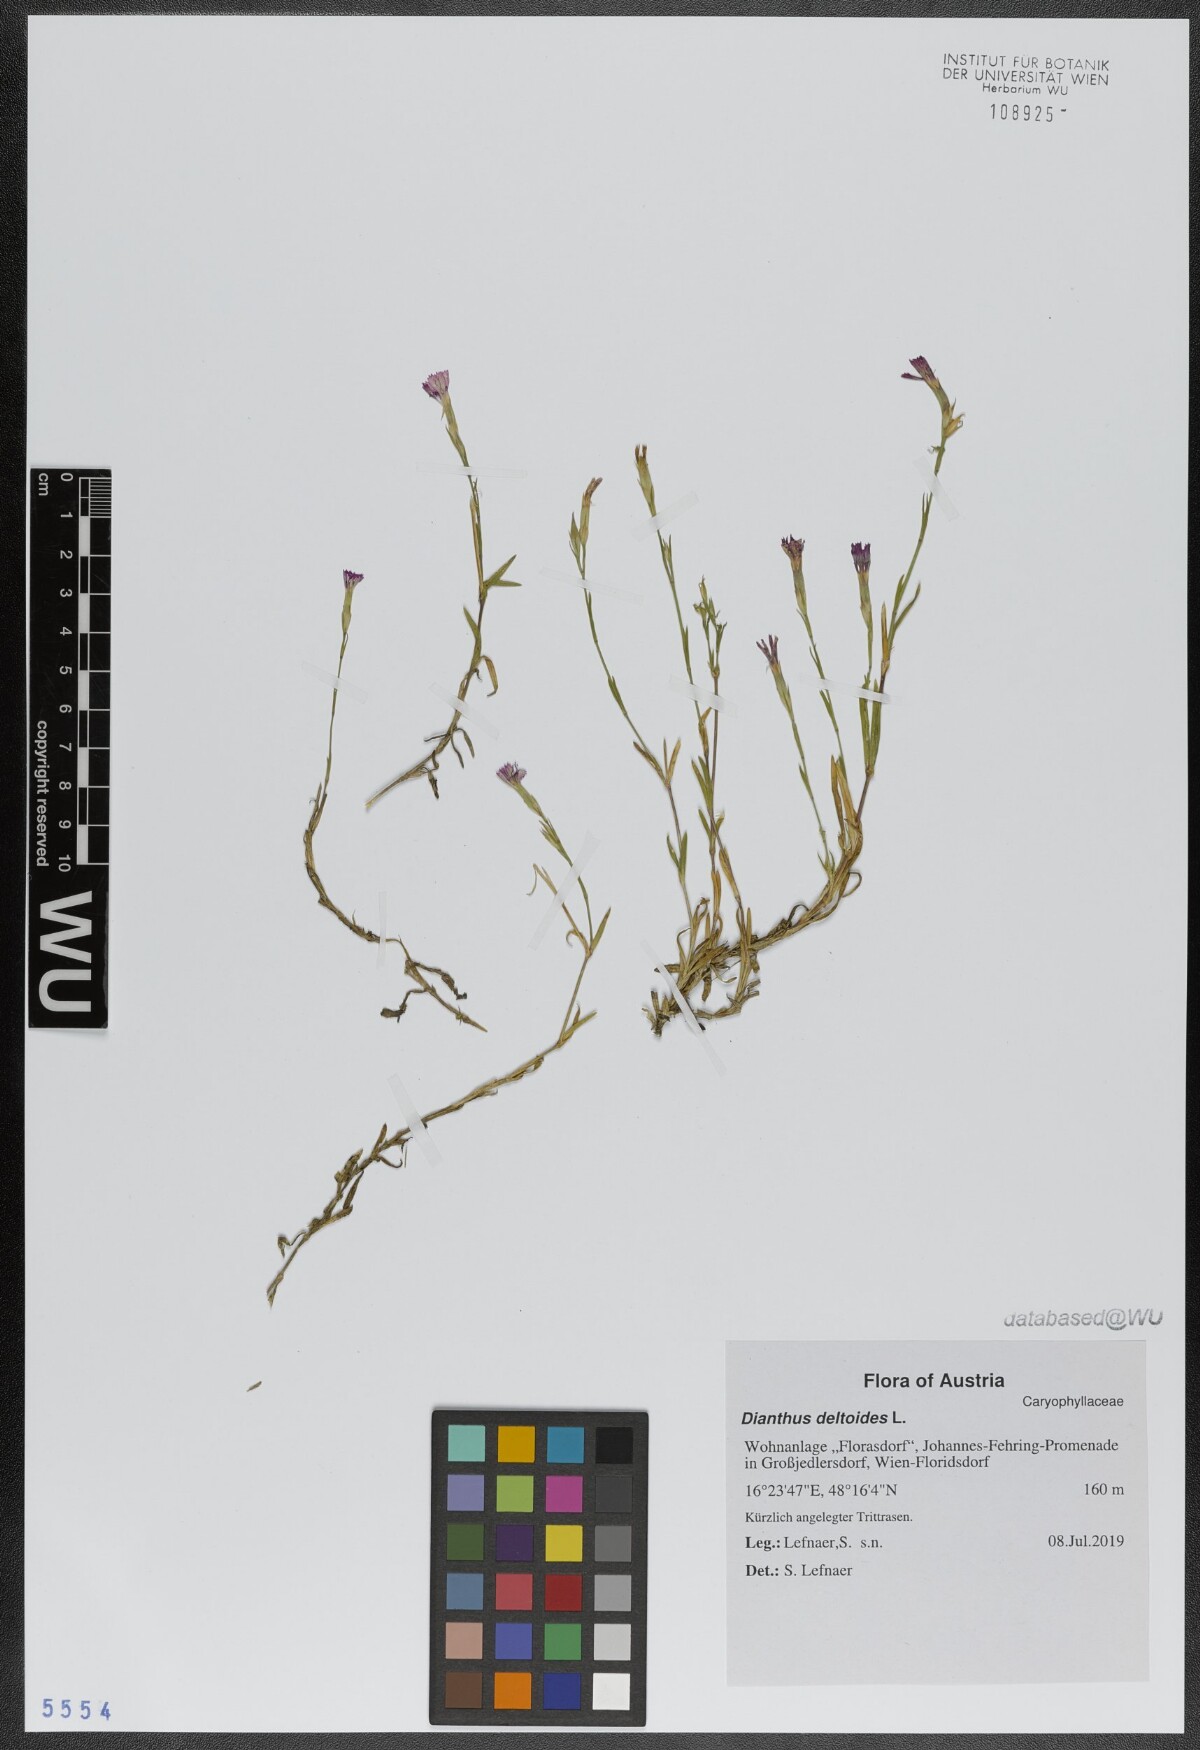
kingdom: Plantae
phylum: Tracheophyta
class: Magnoliopsida
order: Caryophyllales
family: Caryophyllaceae
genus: Dianthus
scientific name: Dianthus deltoides
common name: Maiden pink
